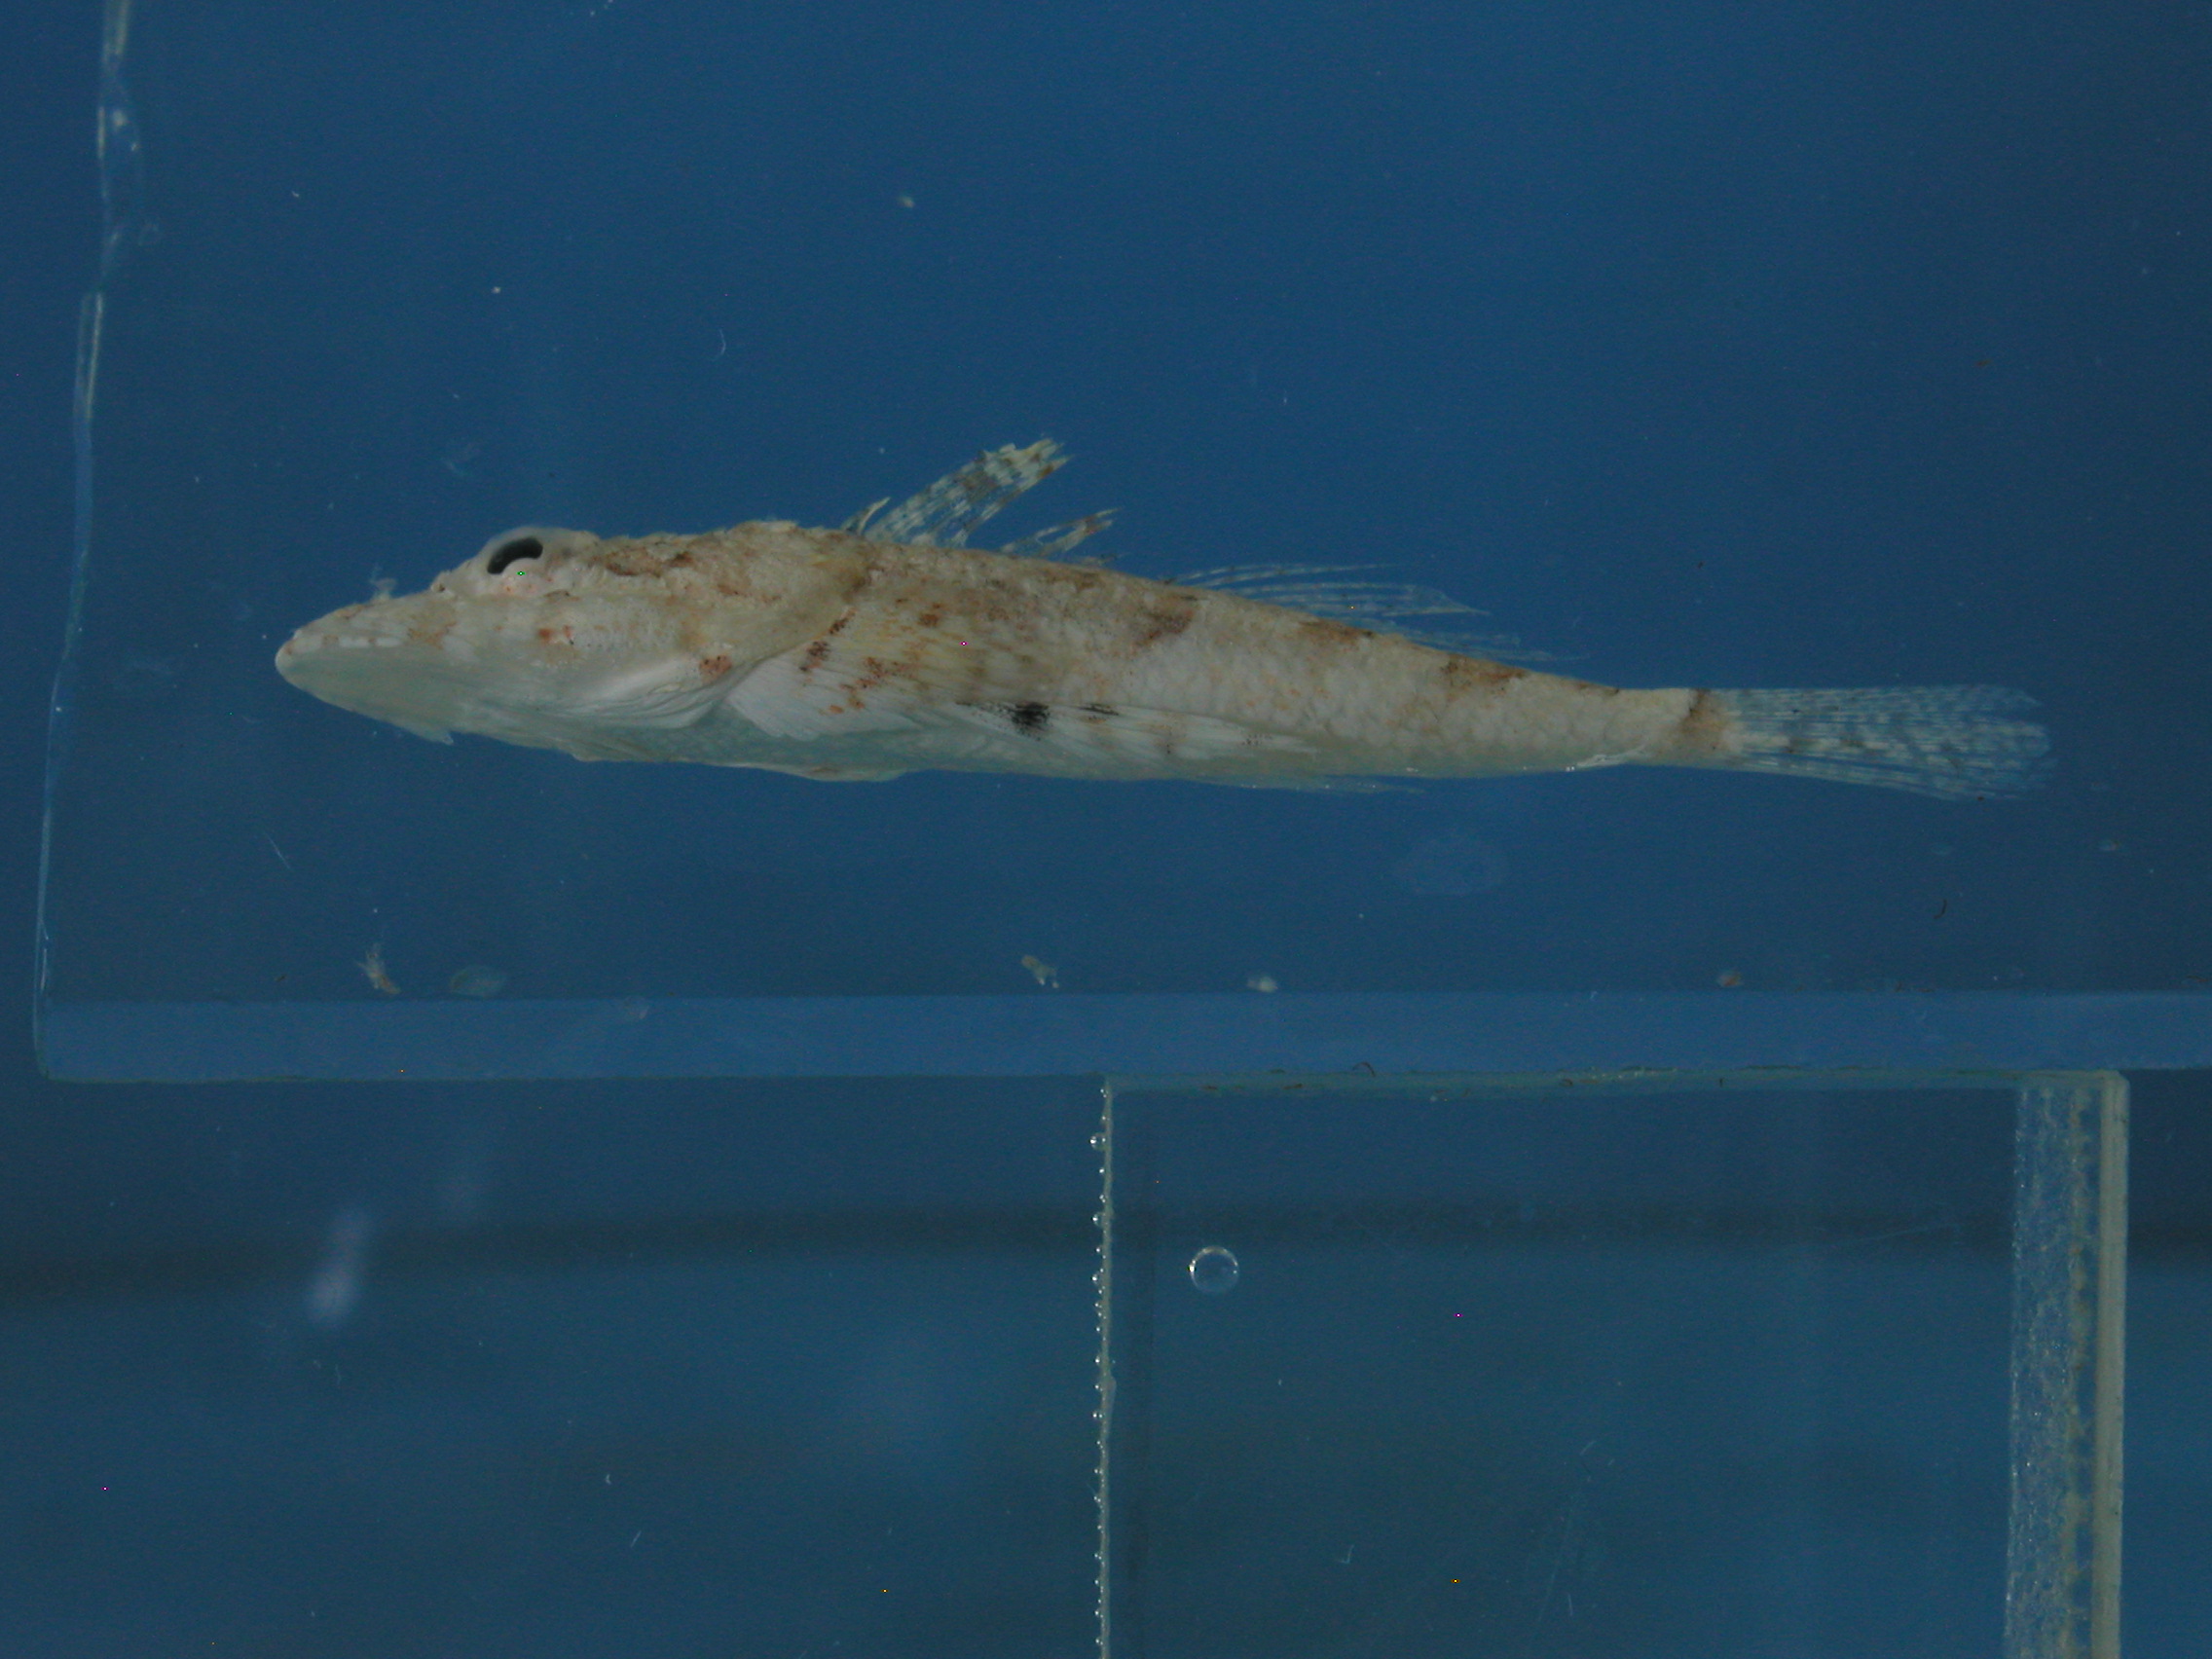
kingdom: Animalia
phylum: Chordata
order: Scorpaeniformes
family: Platycephalidae
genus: Onigocia
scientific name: Onigocia bimaculata
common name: Two-spotted flathead
